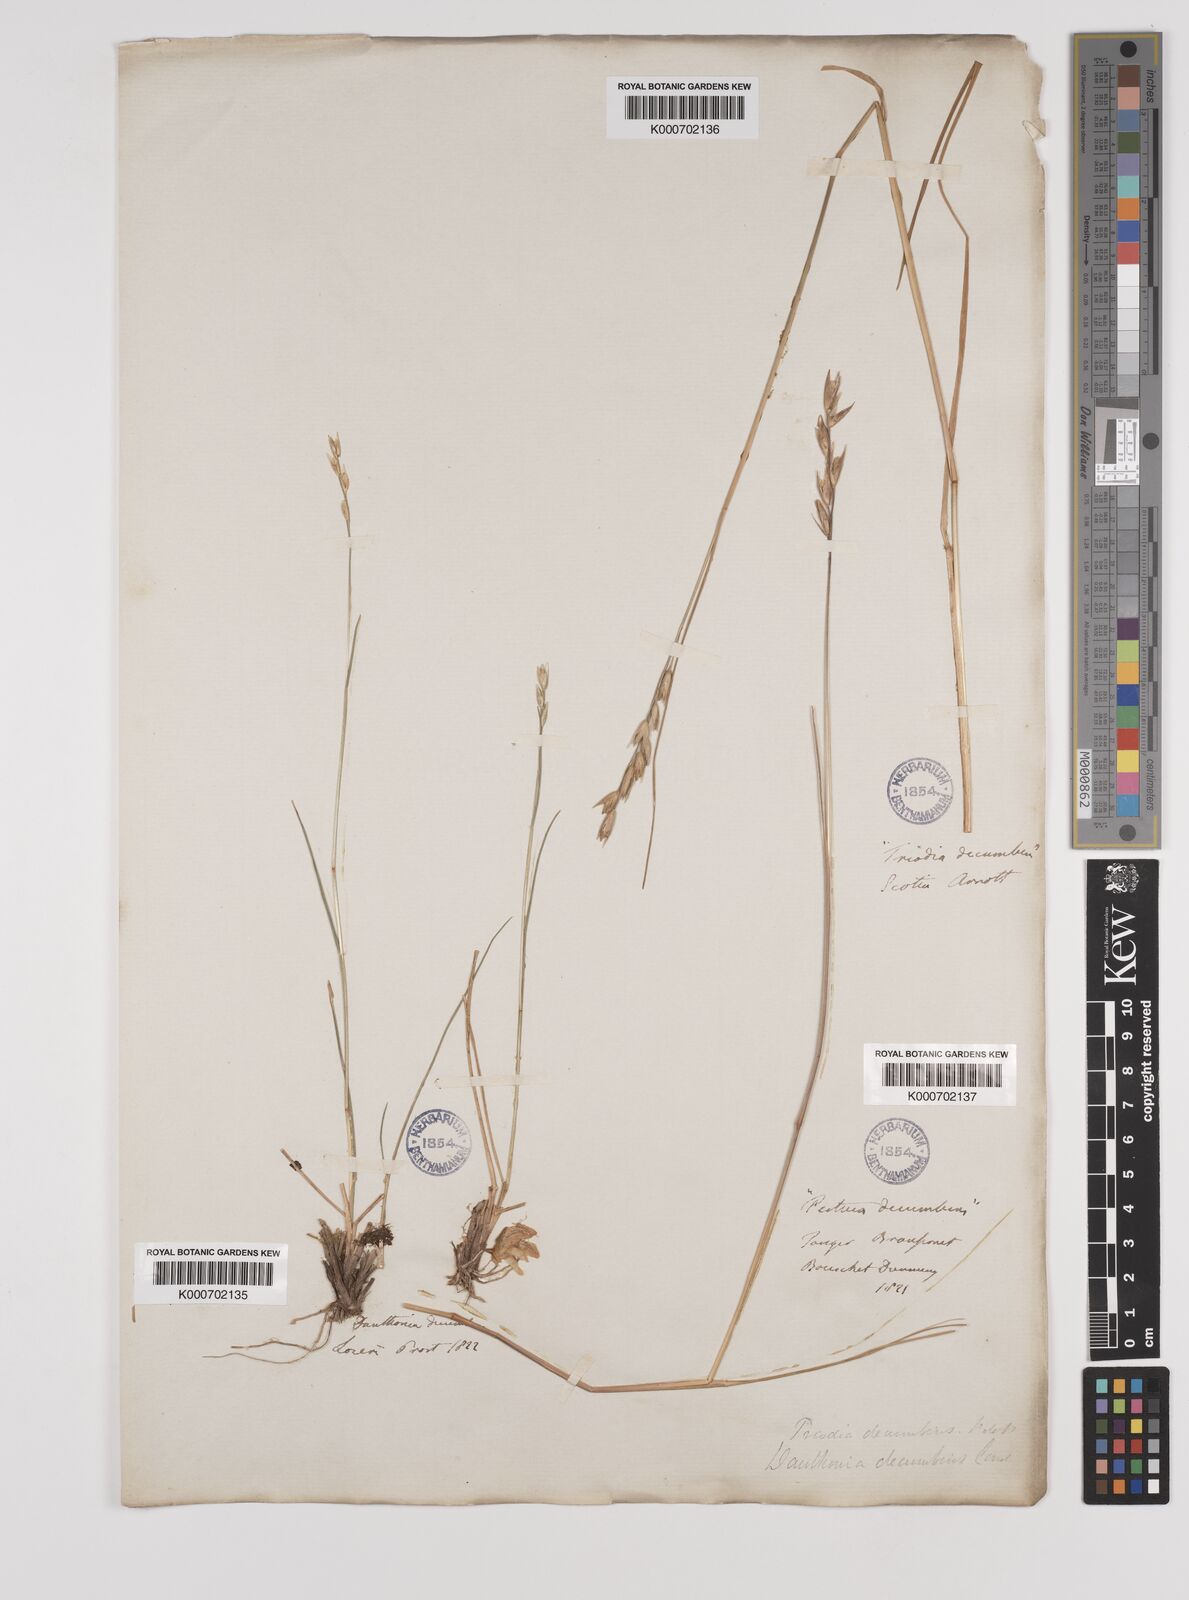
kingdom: Plantae
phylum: Tracheophyta
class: Liliopsida
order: Poales
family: Poaceae
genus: Danthonia
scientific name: Danthonia decumbens
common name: Common heathgrass
